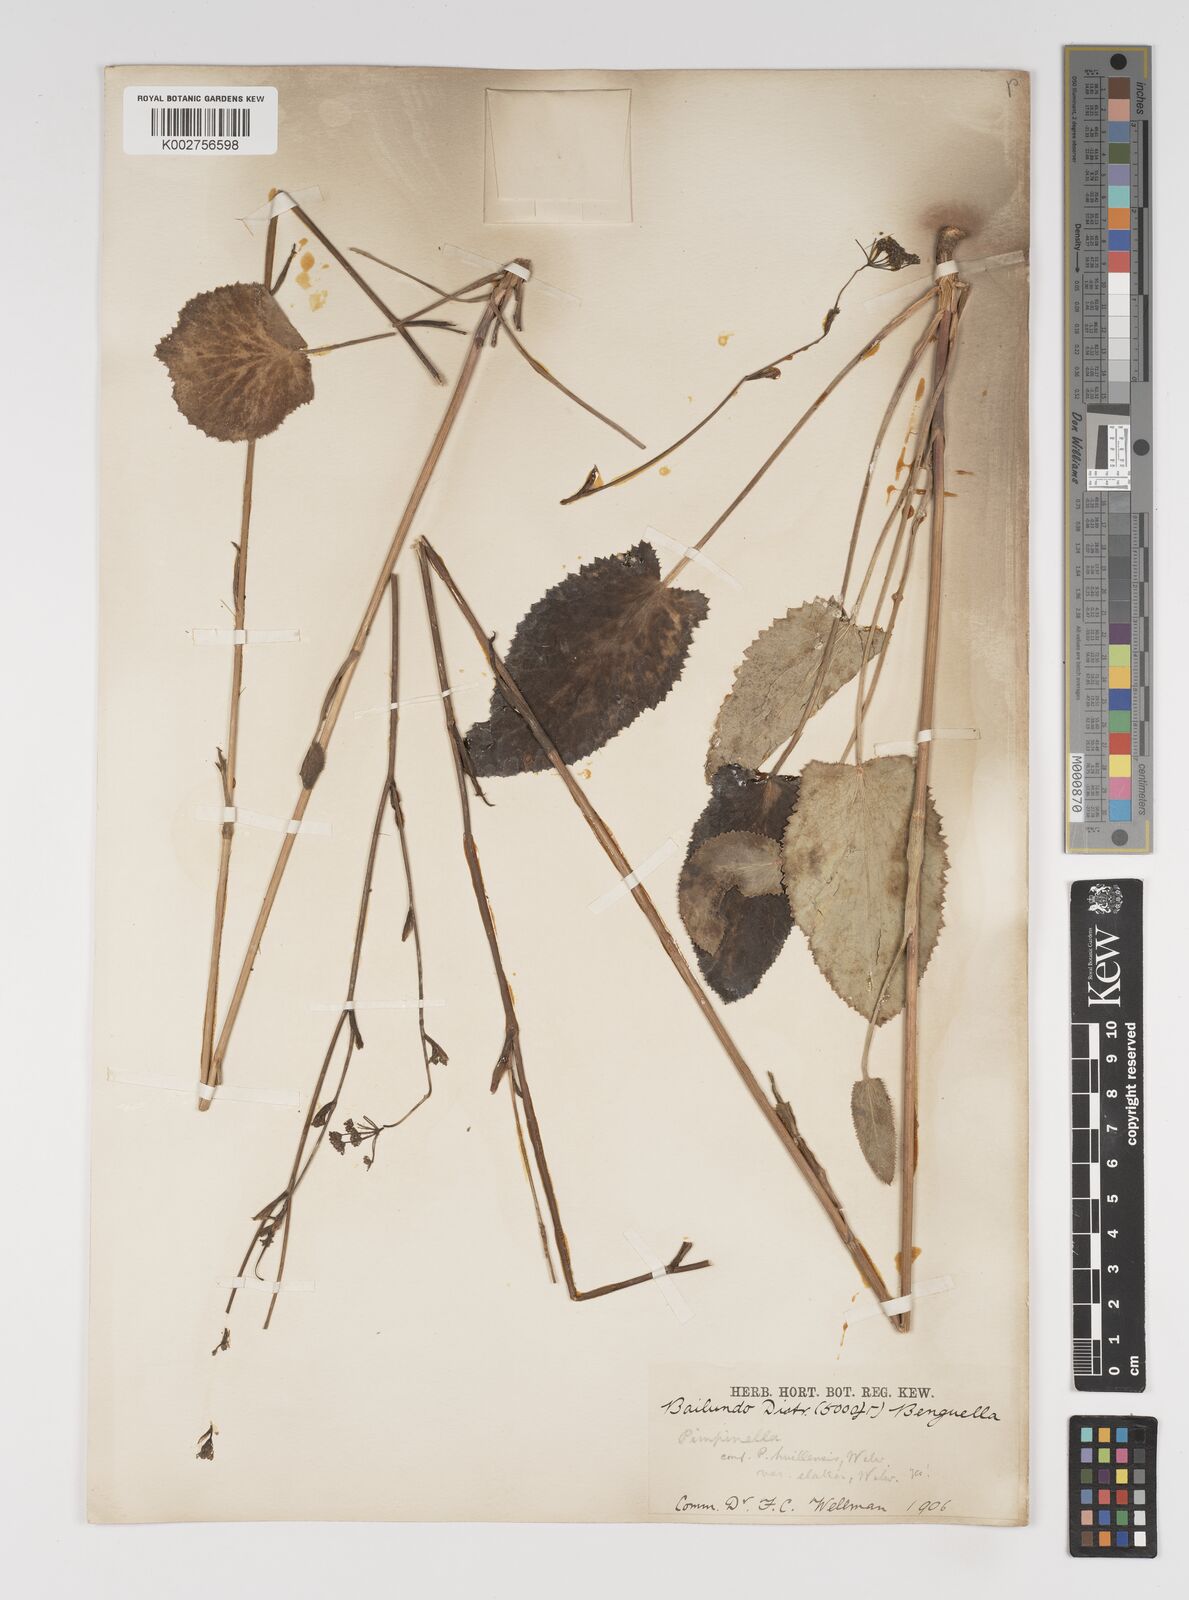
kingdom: Plantae
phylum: Tracheophyta
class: Magnoliopsida
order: Apiales
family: Apiaceae
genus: Pimpinella
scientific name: Pimpinella huillensis
